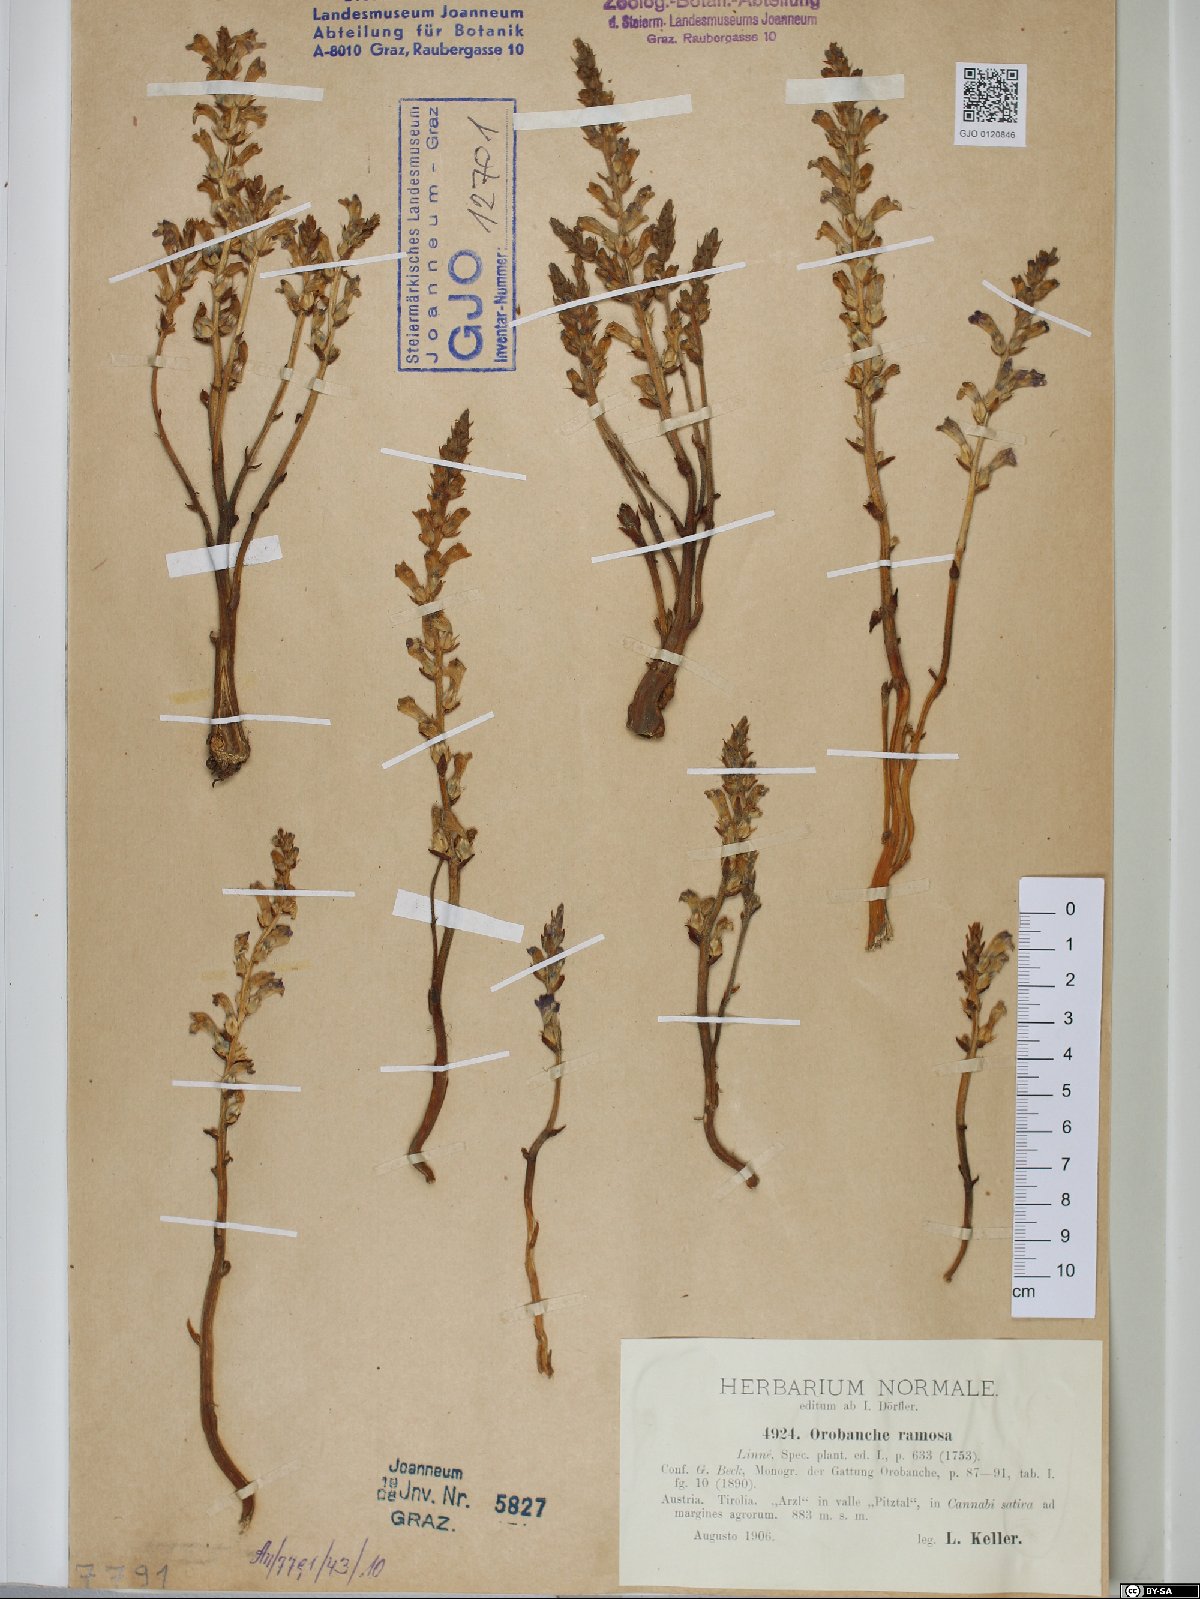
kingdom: Plantae
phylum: Tracheophyta
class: Magnoliopsida
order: Lamiales
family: Orobanchaceae
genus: Phelipanche
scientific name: Phelipanche ramosa
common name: Branched broomrape
